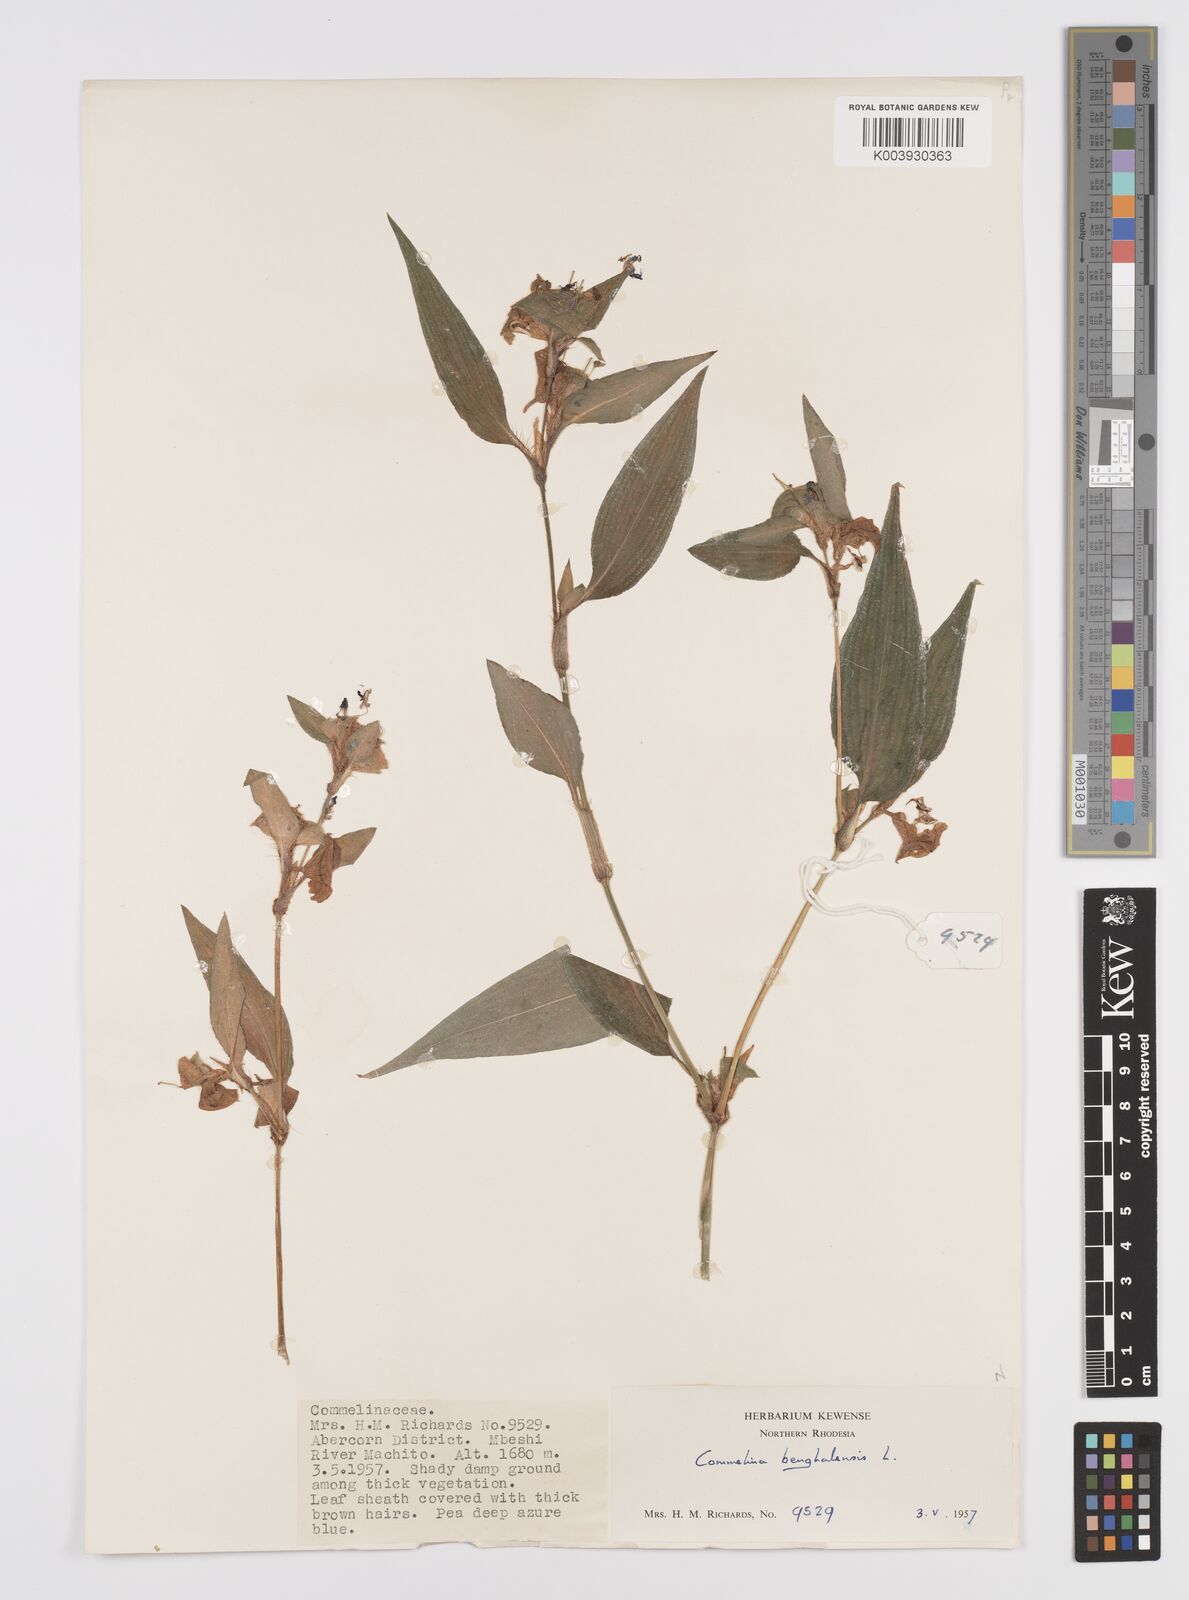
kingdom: Plantae
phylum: Tracheophyta
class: Liliopsida
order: Commelinales
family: Commelinaceae
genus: Commelina
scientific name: Commelina benghalensis
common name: Jio
